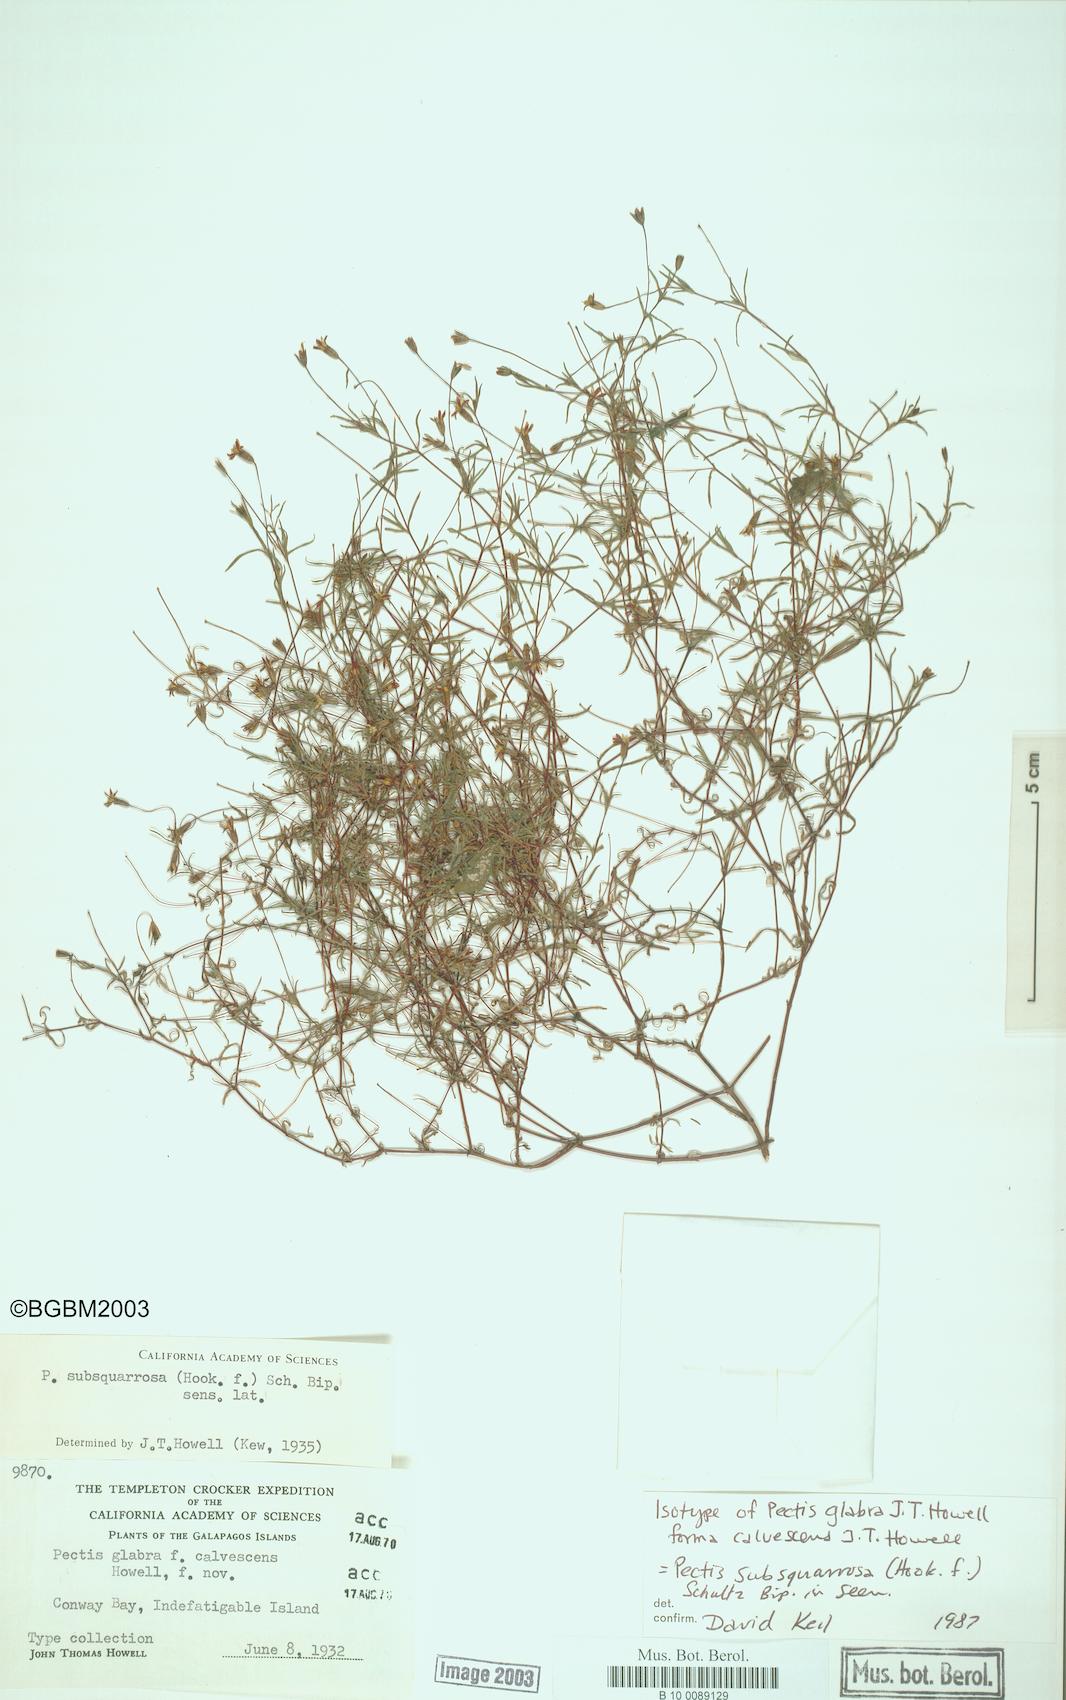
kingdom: Plantae
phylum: Tracheophyta
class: Magnoliopsida
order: Asterales
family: Asteraceae
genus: Pectis
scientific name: Pectis subsquarrosa
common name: Pectis
